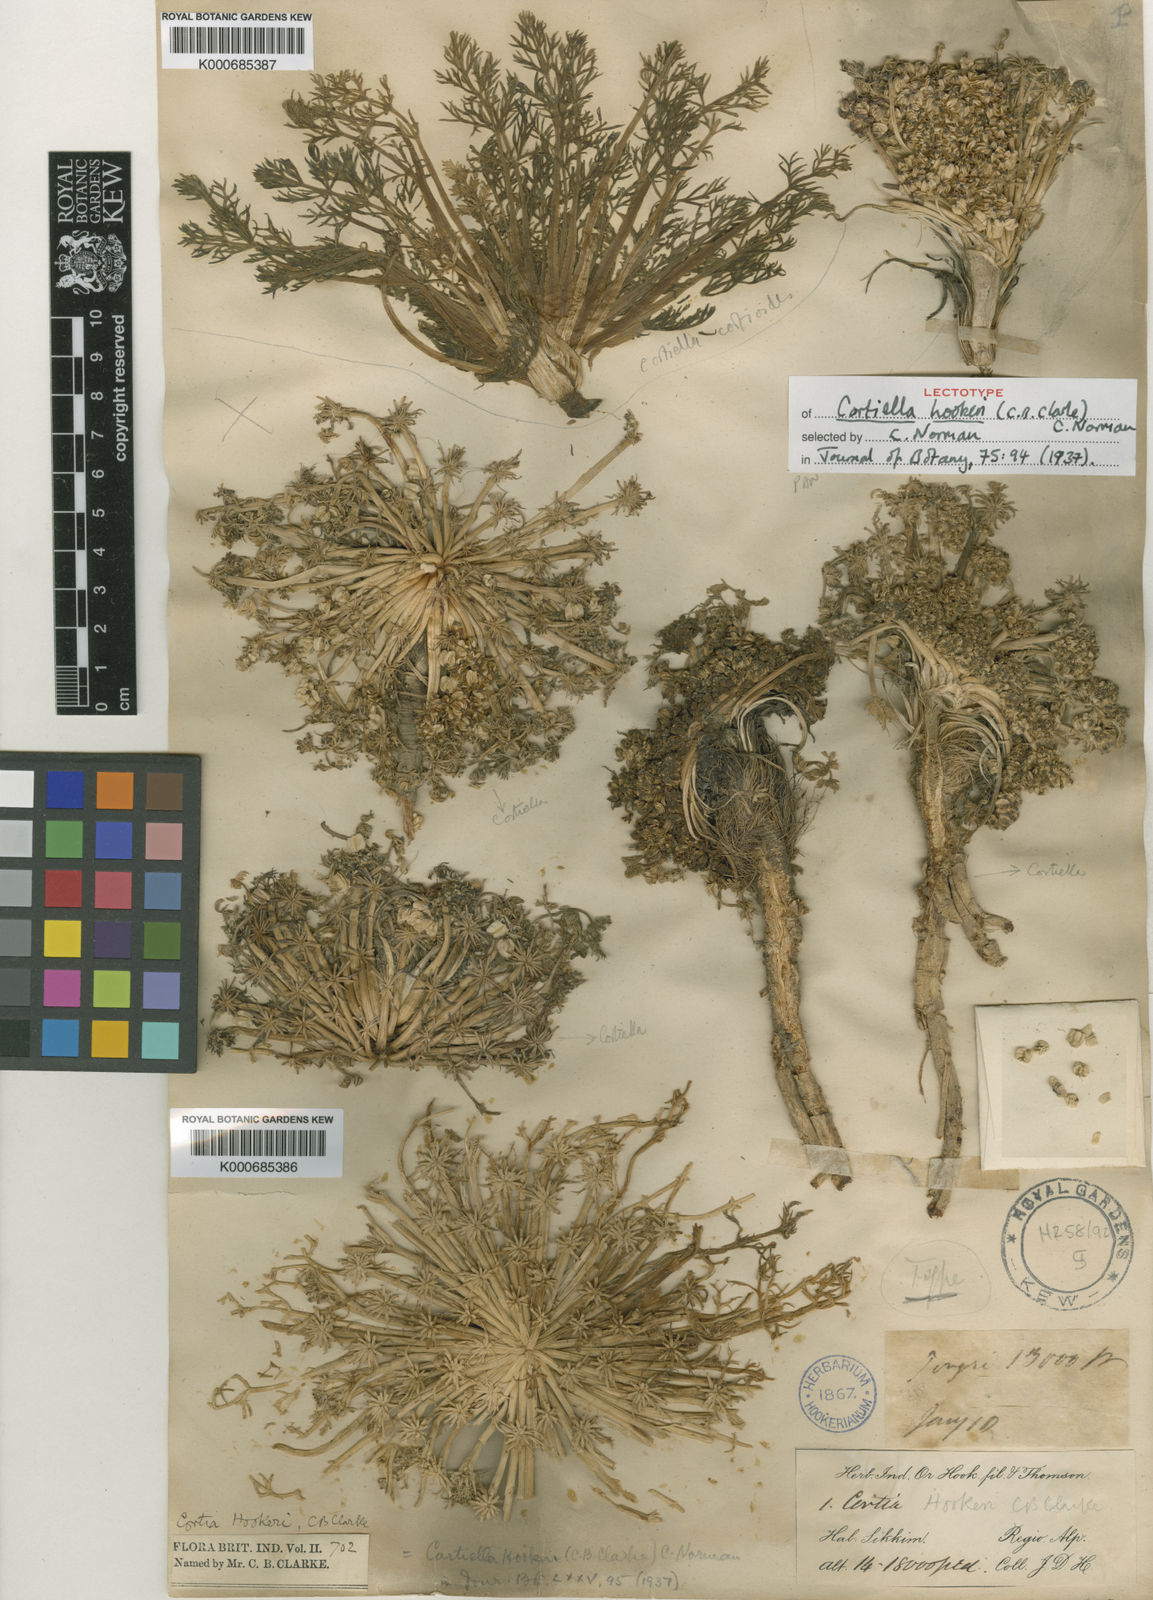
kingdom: Plantae
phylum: Tracheophyta
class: Magnoliopsida
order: Apiales
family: Apiaceae
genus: Cortiella
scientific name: Cortiella cortioides
